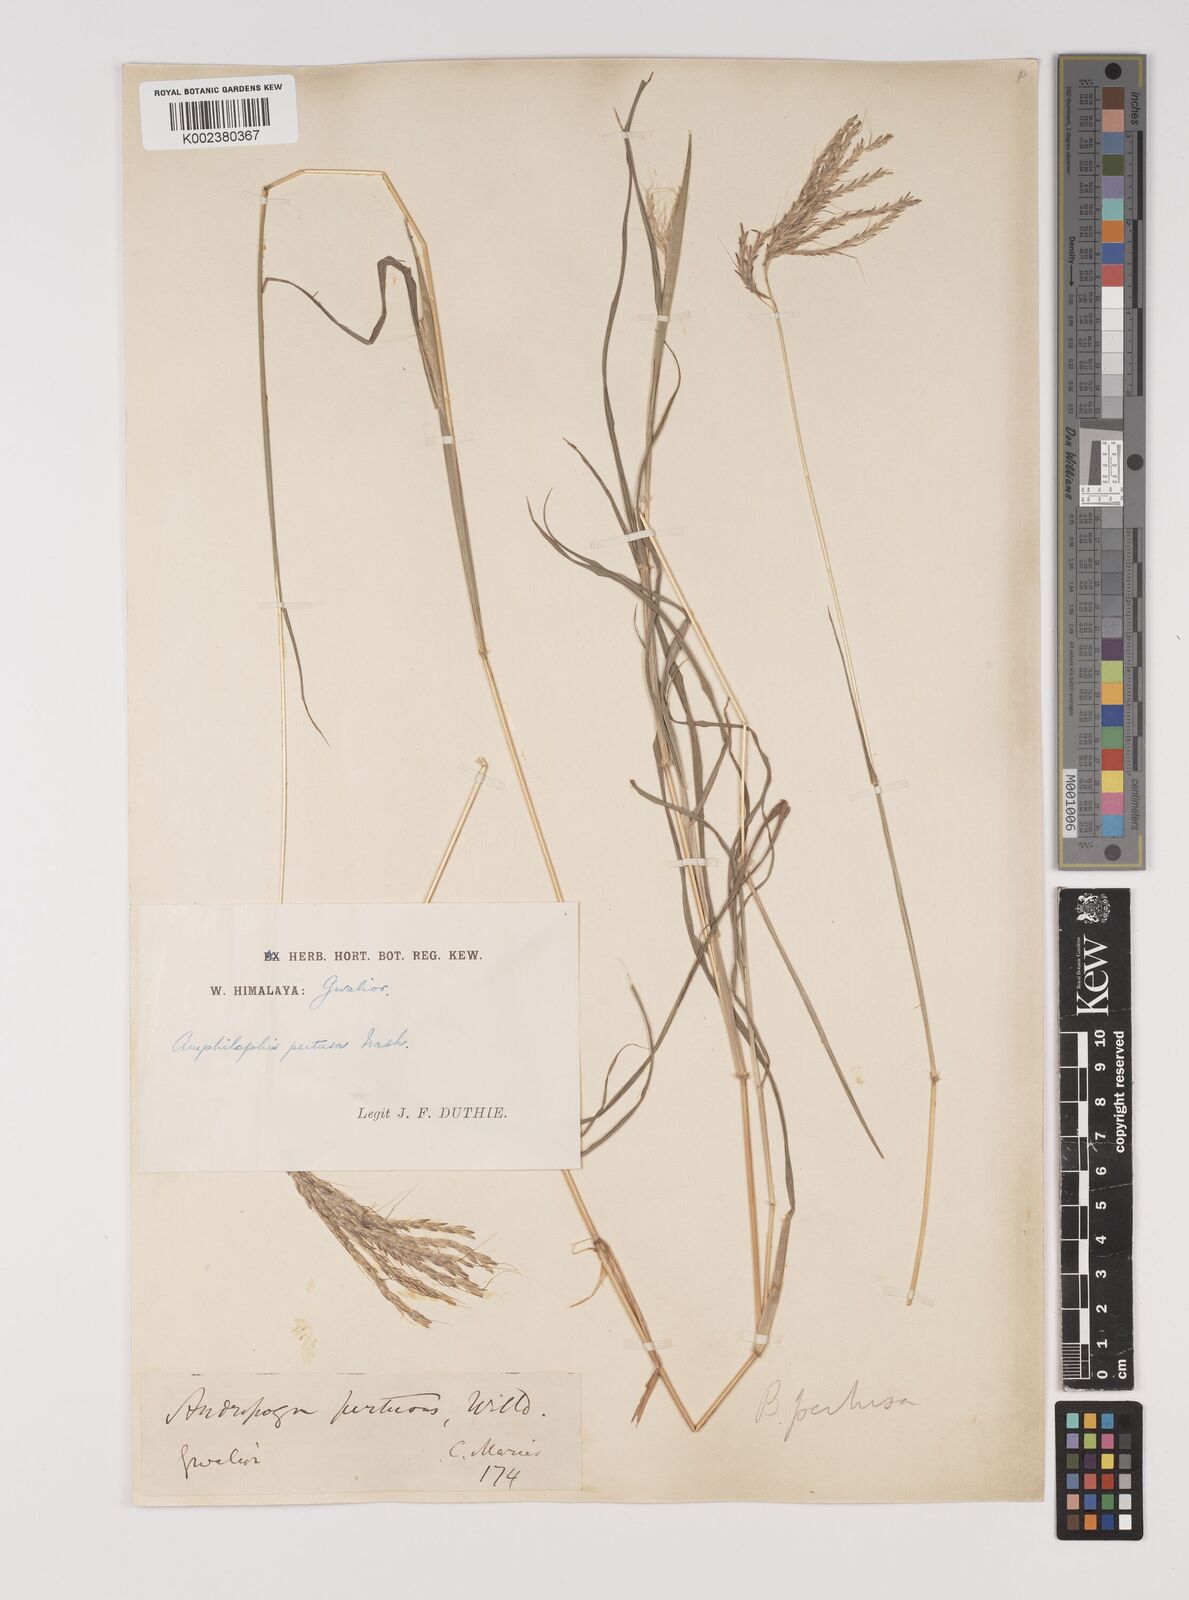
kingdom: Plantae
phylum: Tracheophyta
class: Liliopsida
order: Poales
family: Poaceae
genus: Bothriochloa
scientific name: Bothriochloa pertusa
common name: Pitted beardgrass
